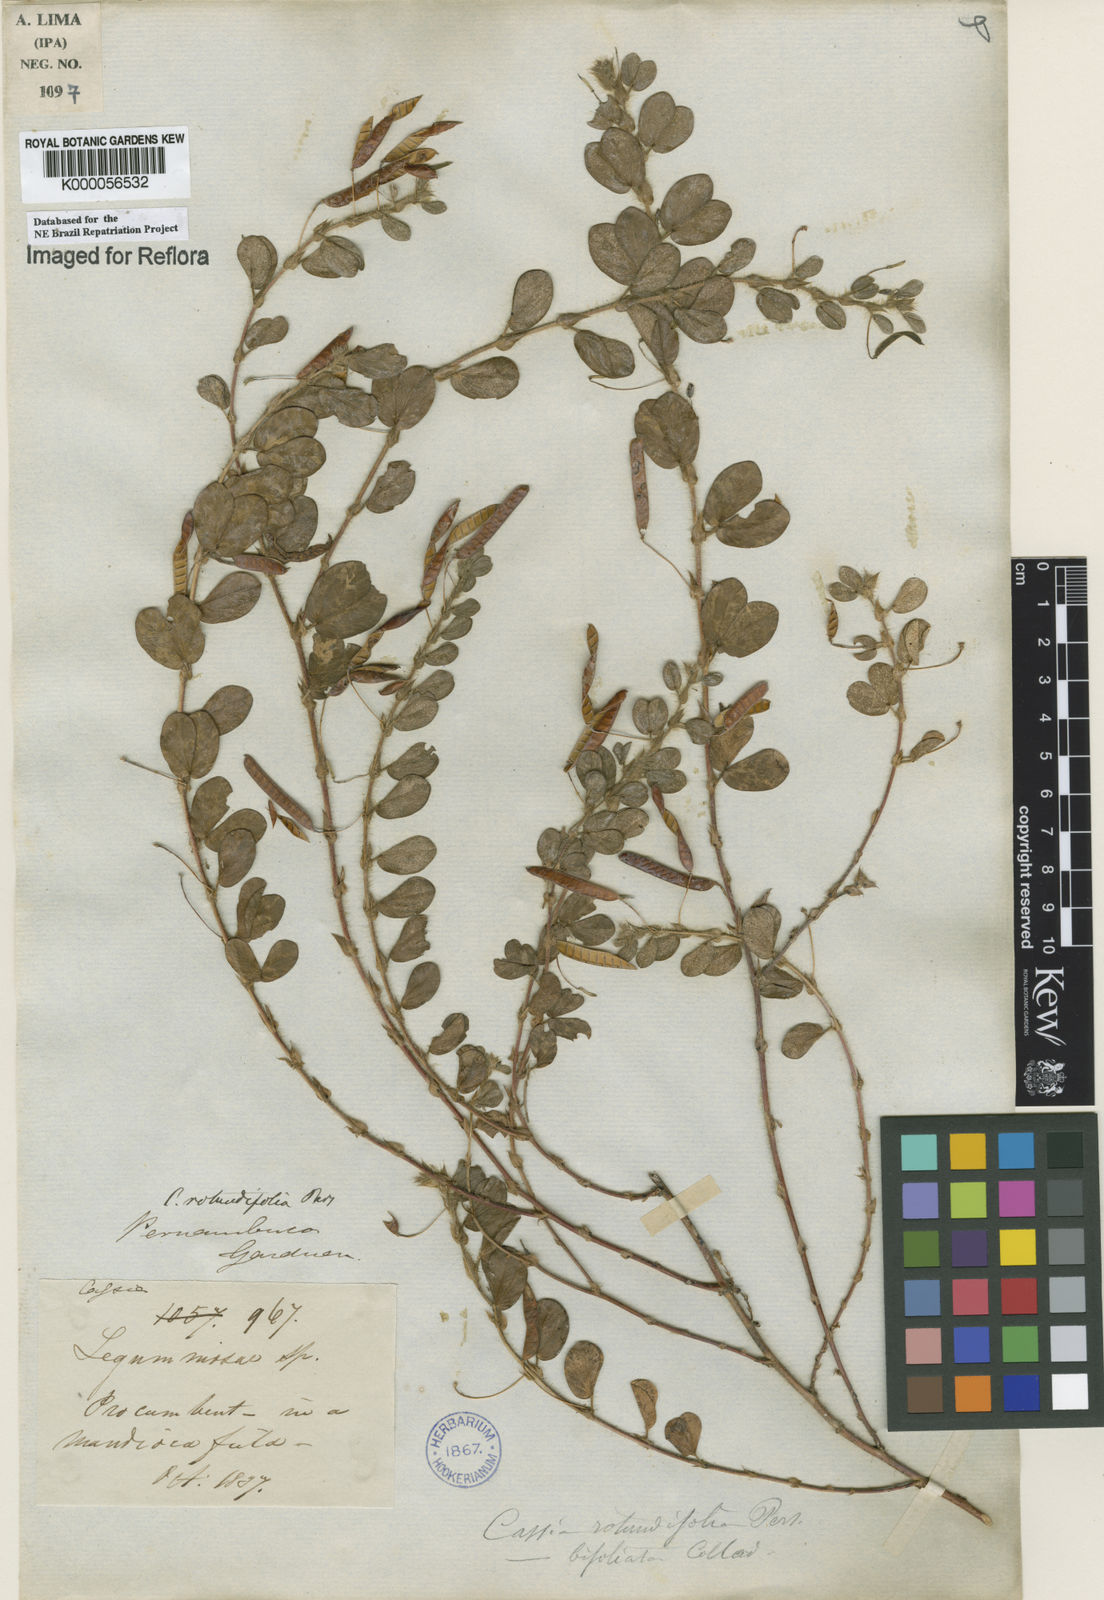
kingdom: Plantae
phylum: Tracheophyta
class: Magnoliopsida
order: Fabales
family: Fabaceae
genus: Chamaecrista
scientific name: Chamaecrista rotundifolia
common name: Round-leaf cassia
